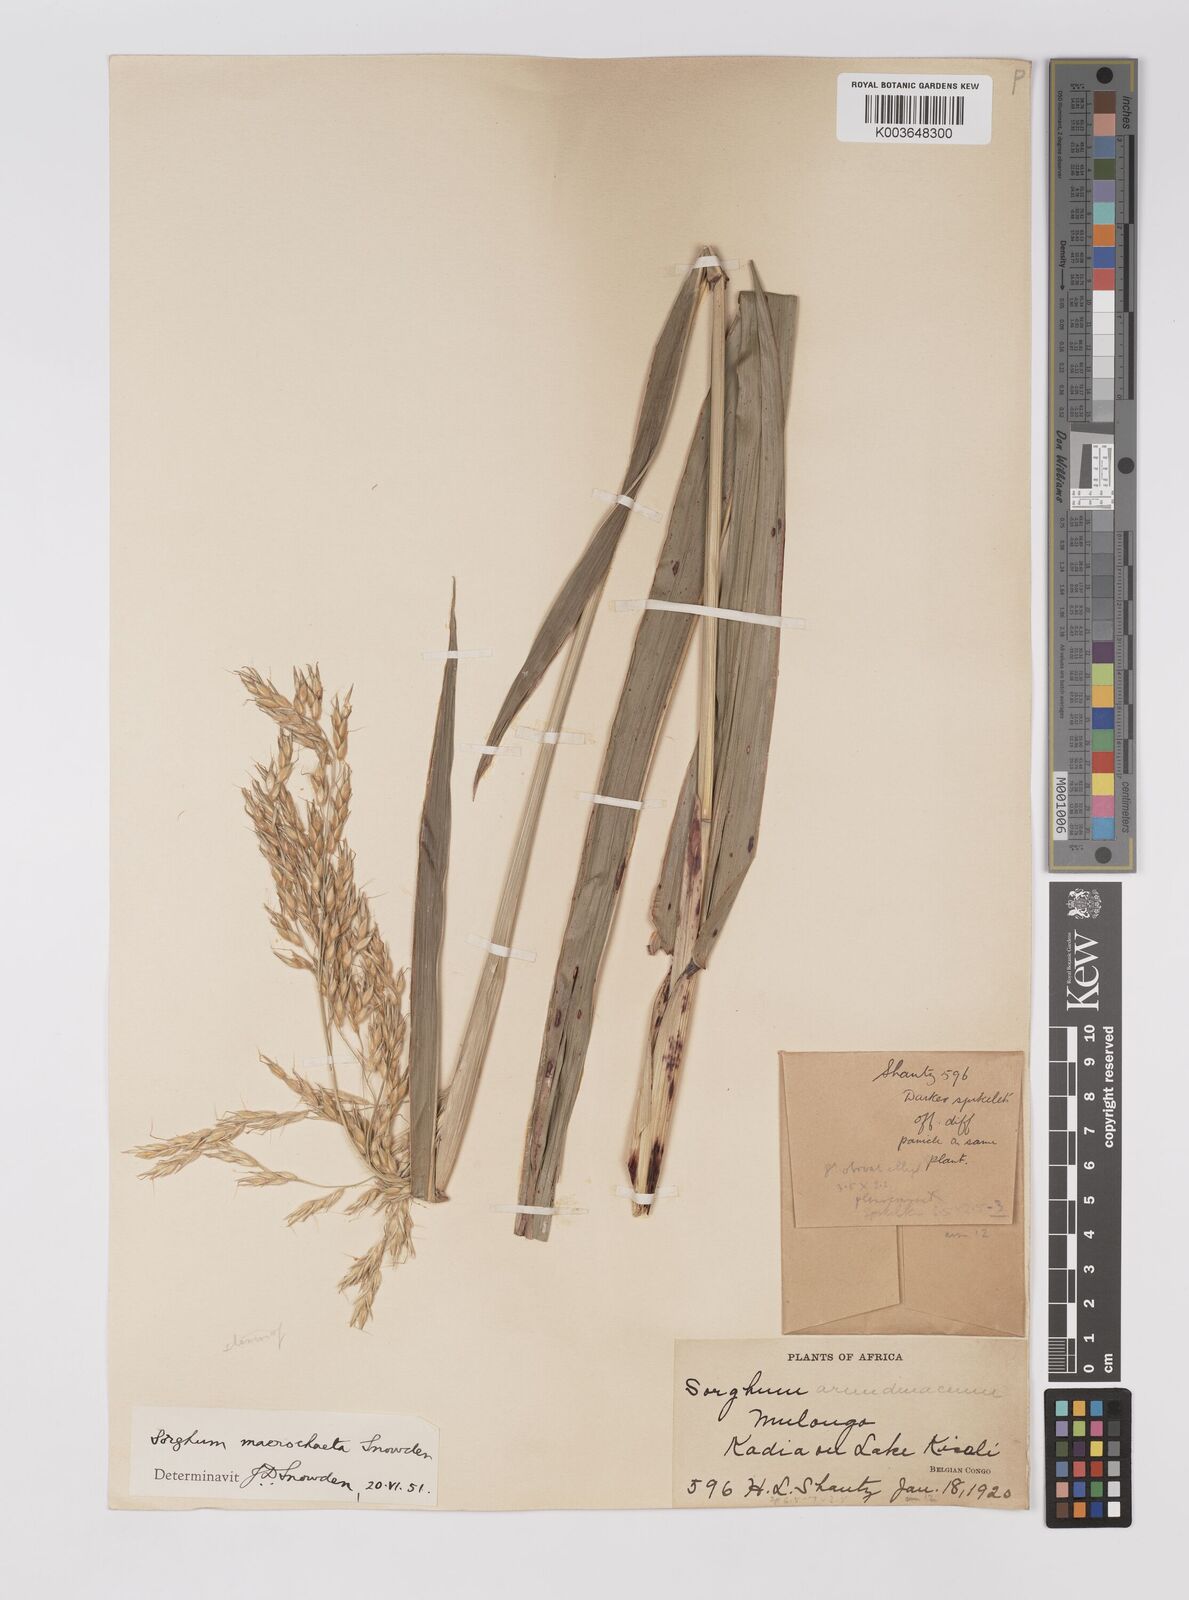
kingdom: Plantae
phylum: Tracheophyta
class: Liliopsida
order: Poales
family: Poaceae
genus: Sorghum
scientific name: Sorghum arundinaceum
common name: Sorghum
